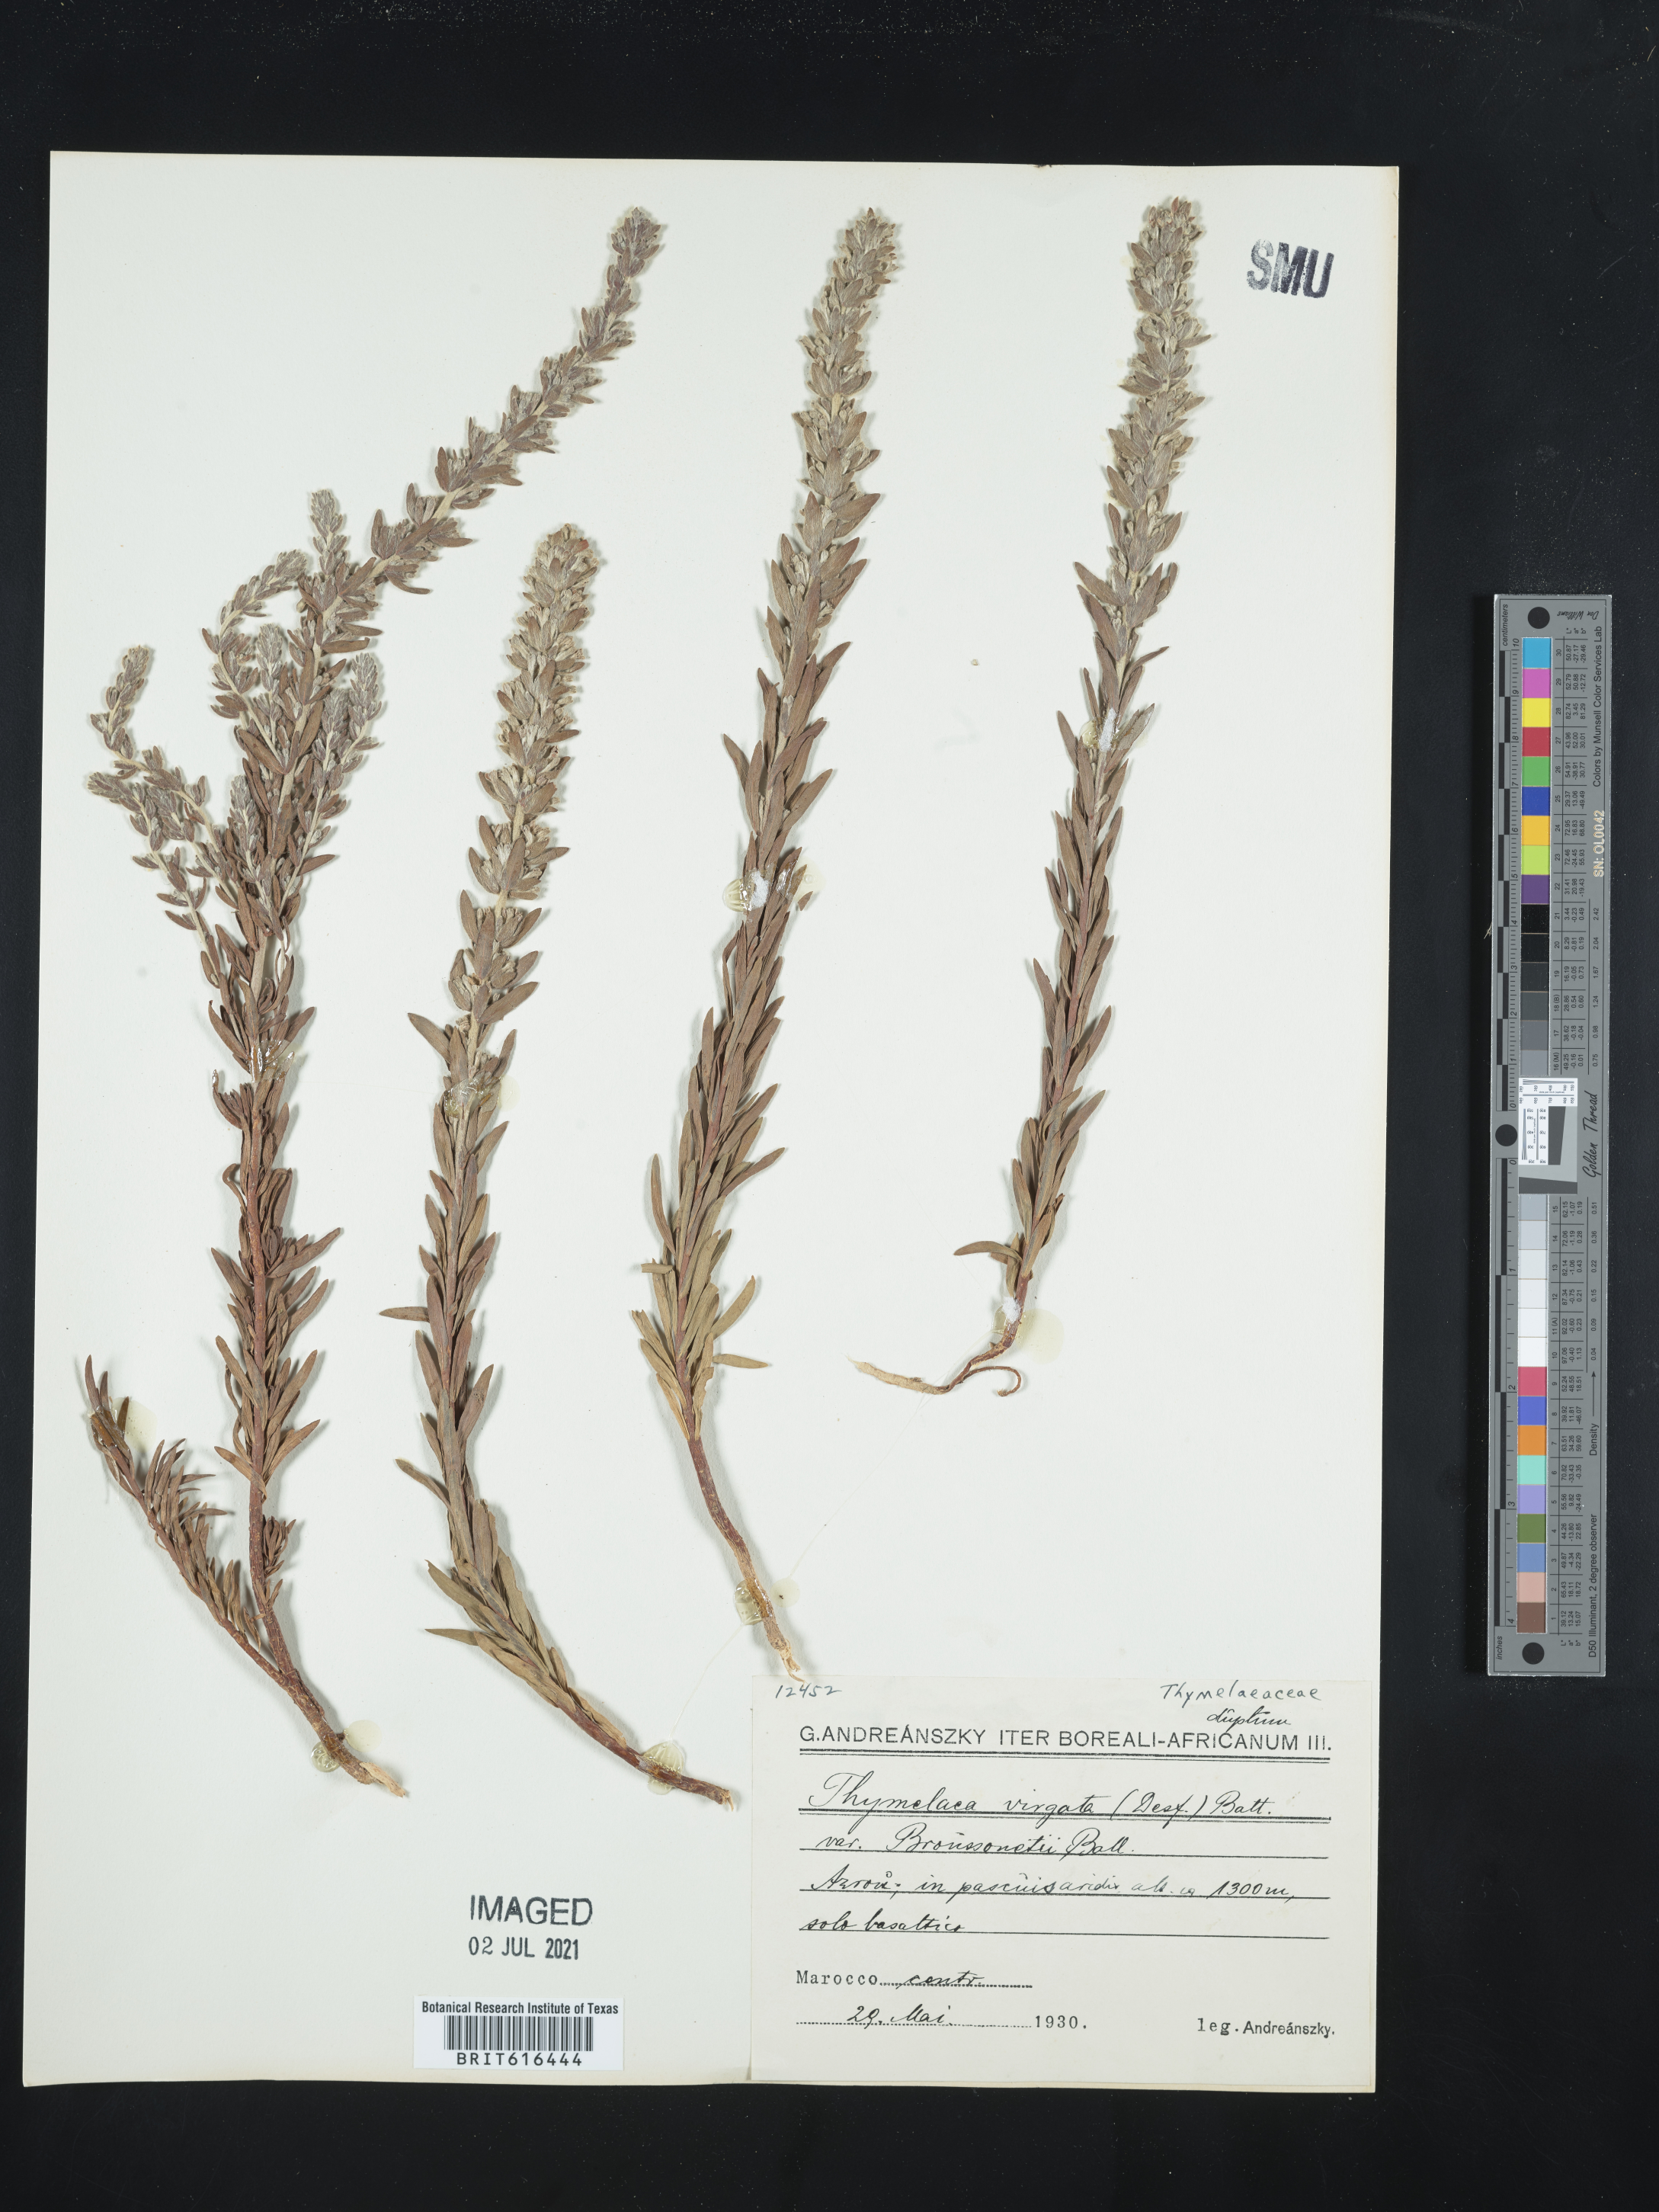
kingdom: Plantae
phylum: Tracheophyta
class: Magnoliopsida
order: Malvales
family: Thymelaeaceae
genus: Thymelaea
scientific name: Thymelaea virgata
